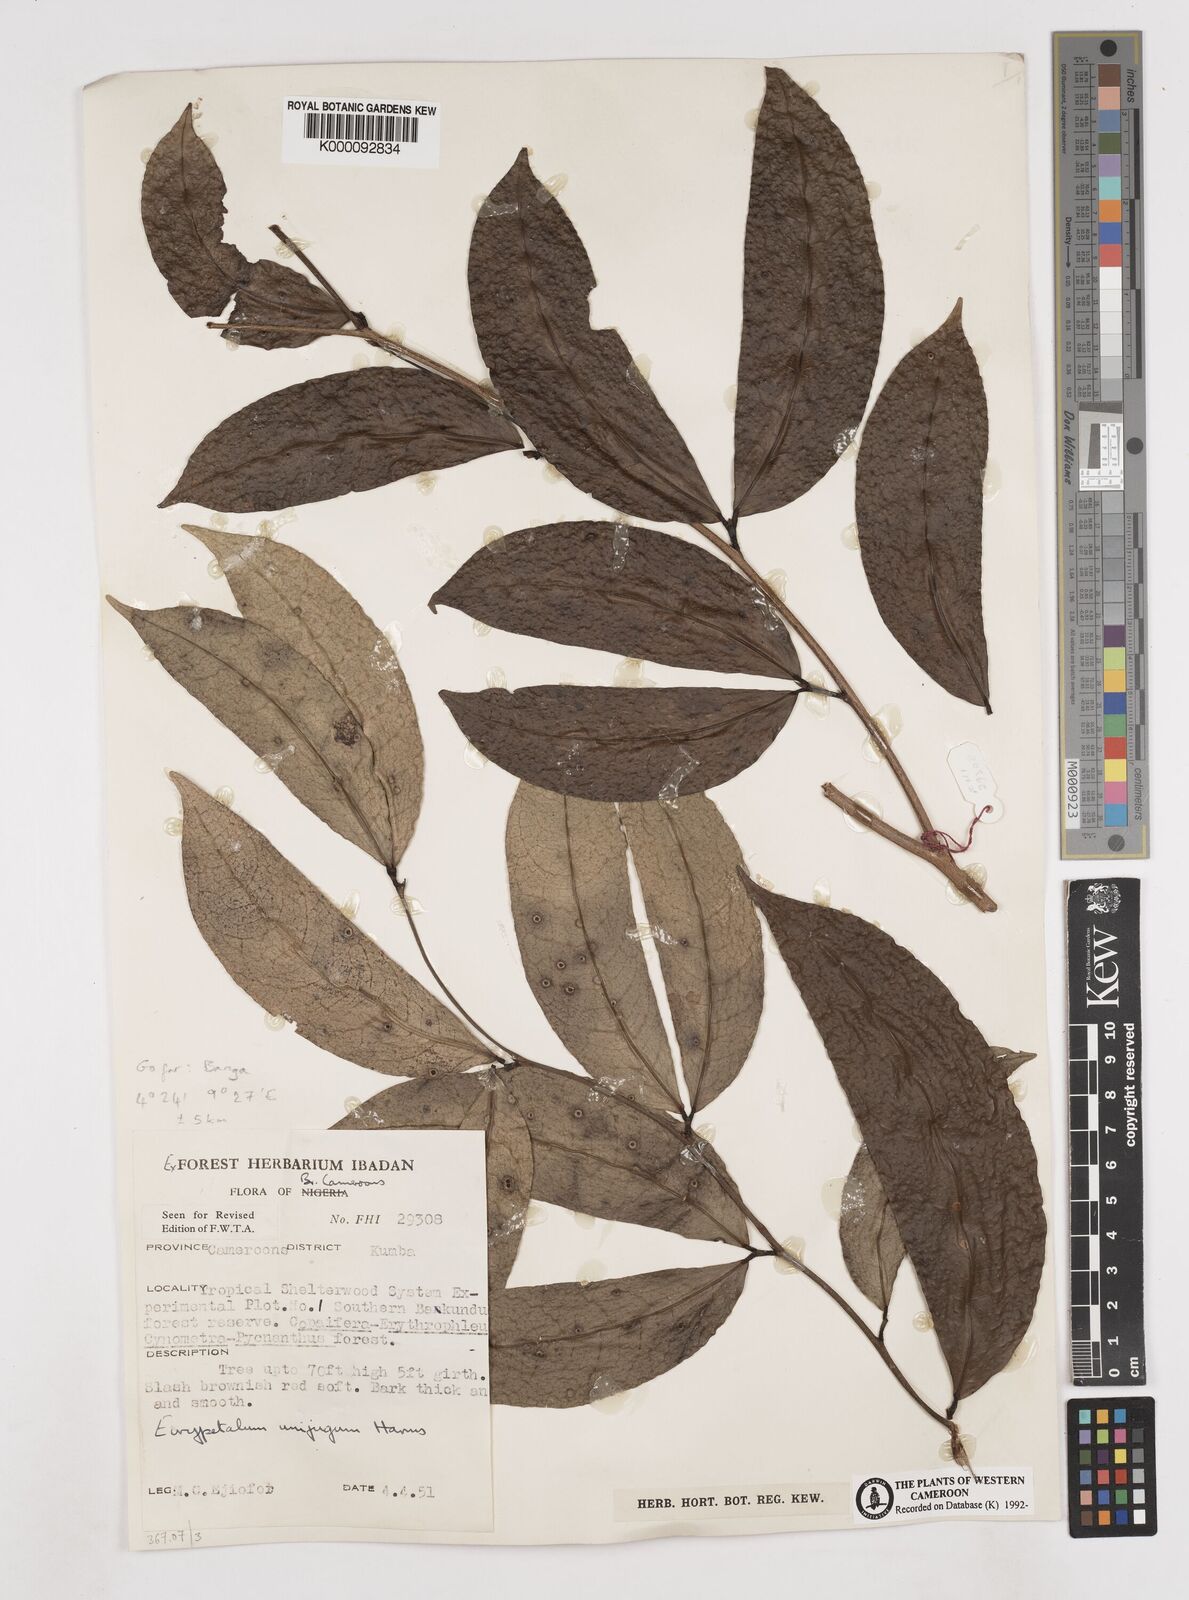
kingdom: Plantae
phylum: Tracheophyta
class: Magnoliopsida
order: Fabales
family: Fabaceae
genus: Eurypetalum
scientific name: Eurypetalum unijugum
